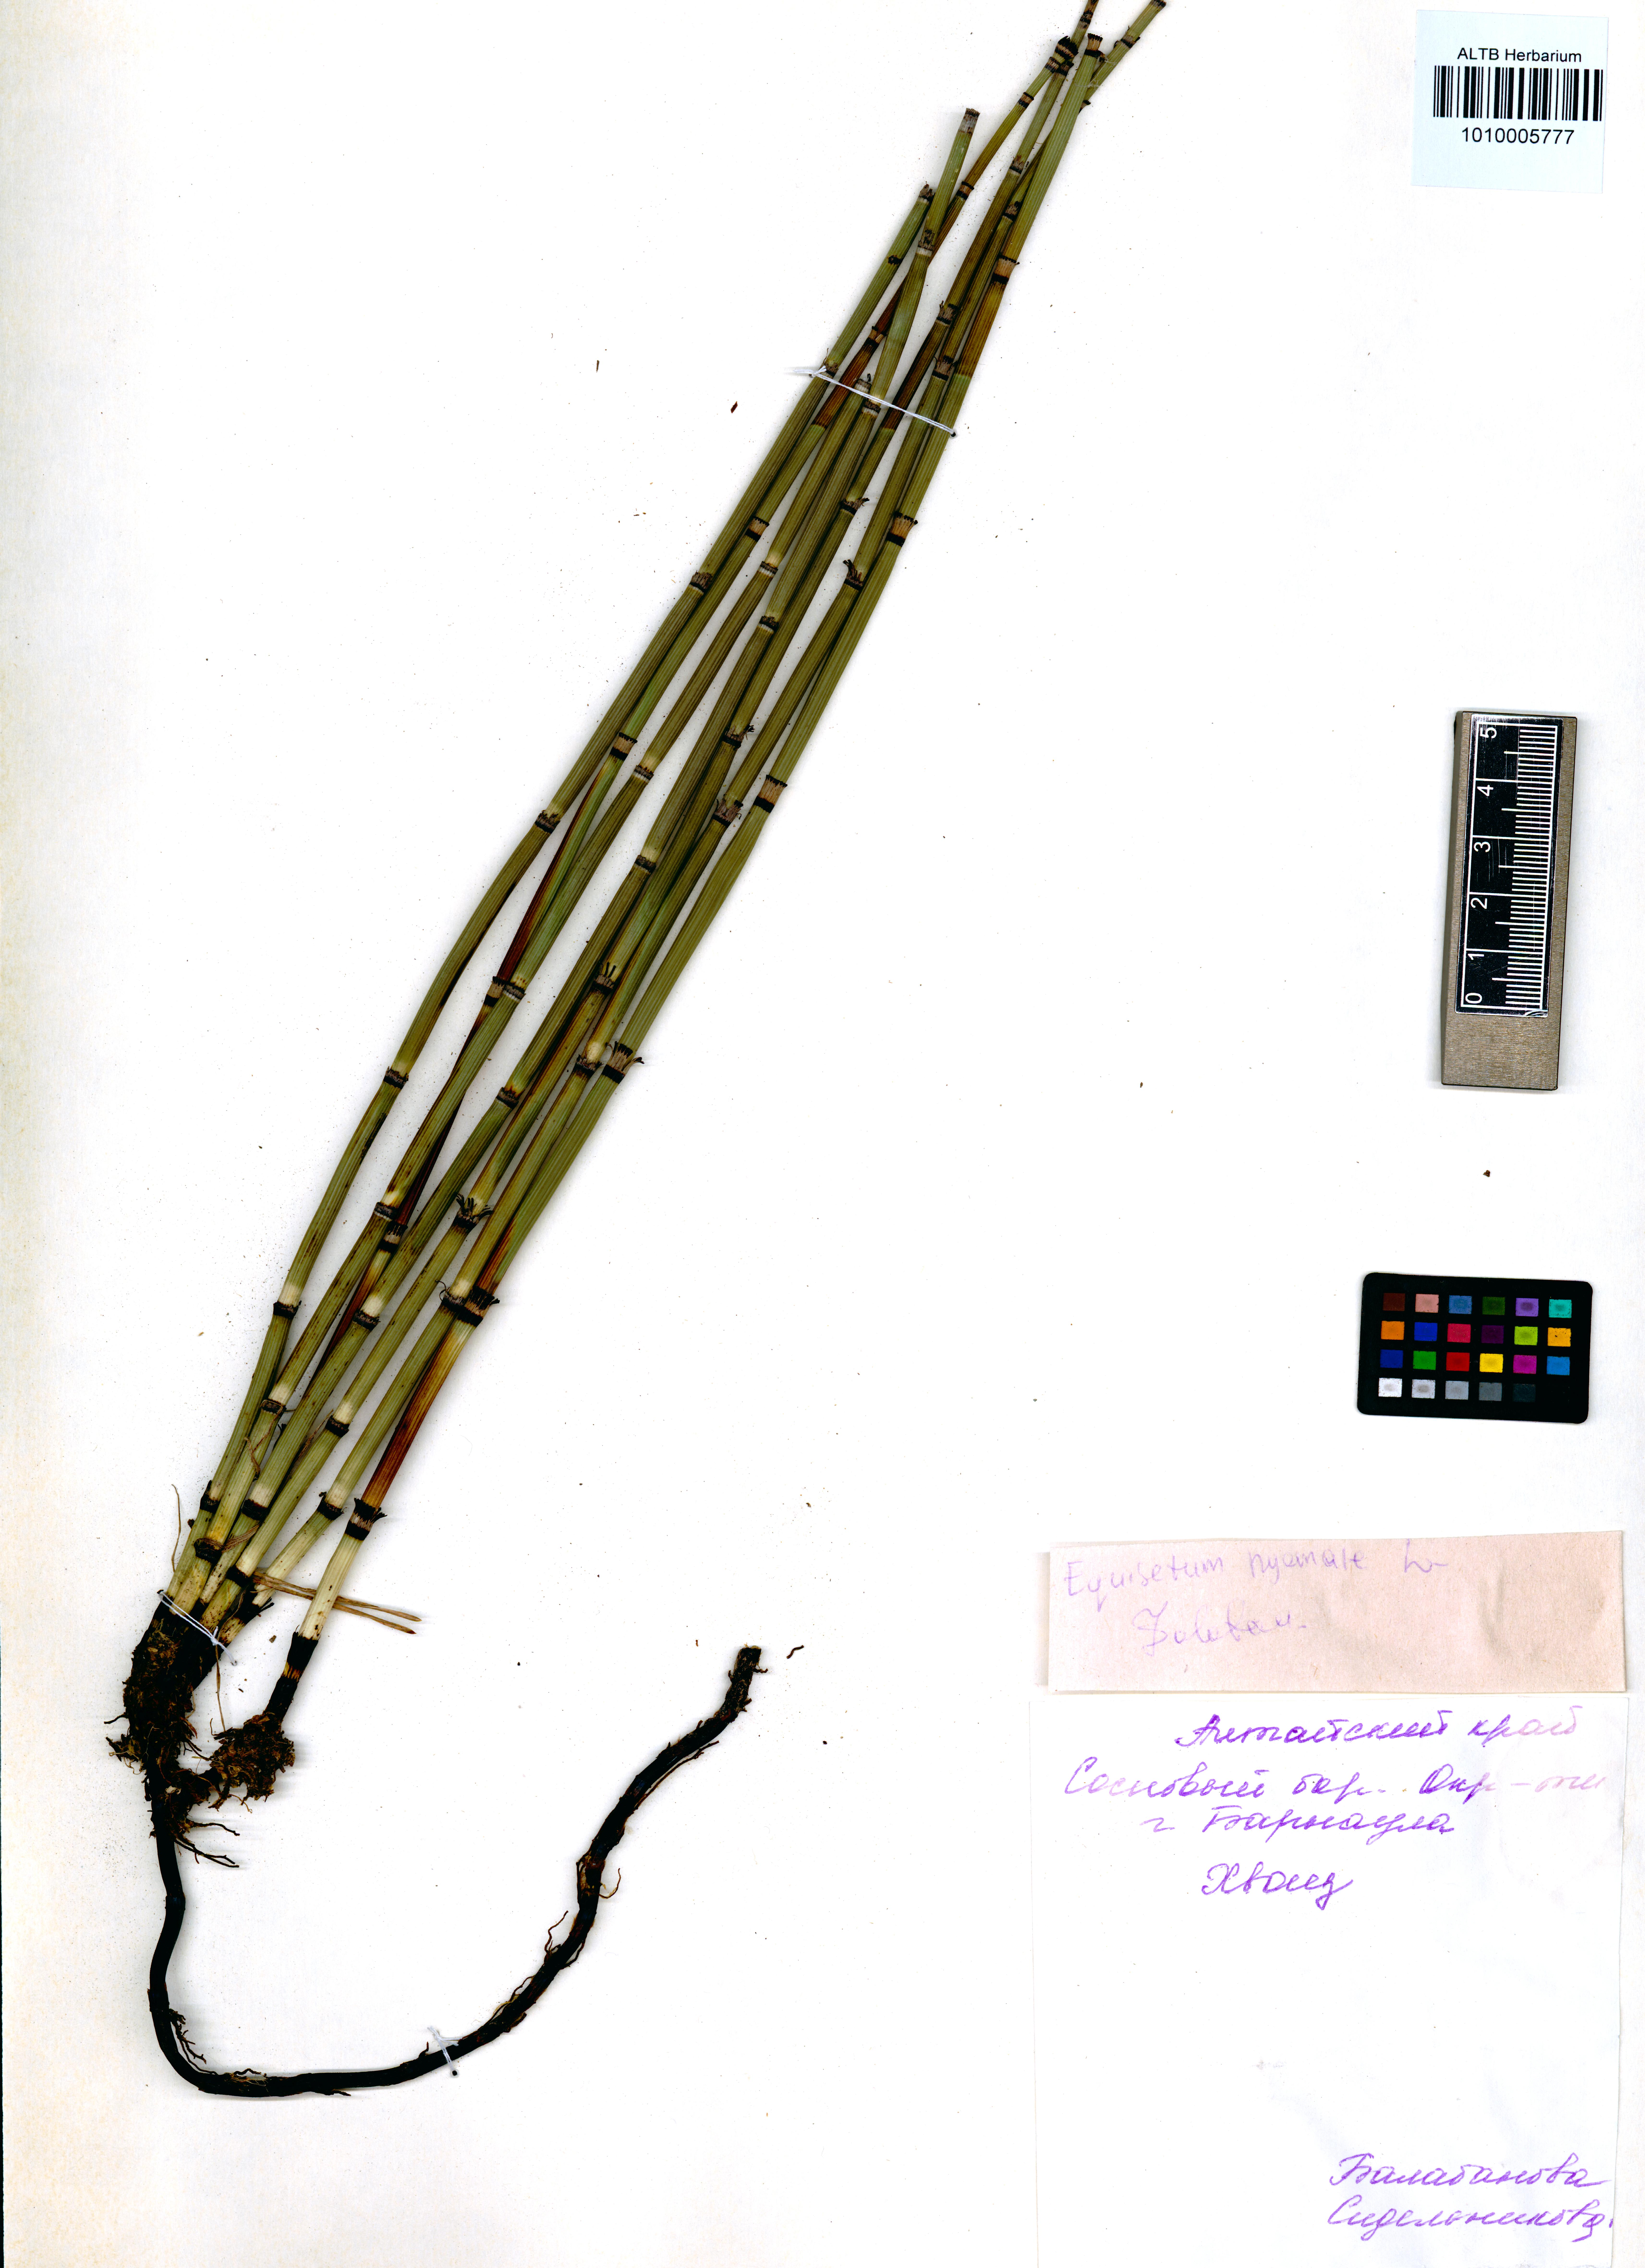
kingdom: Plantae
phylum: Tracheophyta
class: Polypodiopsida
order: Equisetales
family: Equisetaceae
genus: Equisetum
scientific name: Equisetum hyemale
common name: Rough horsetail
